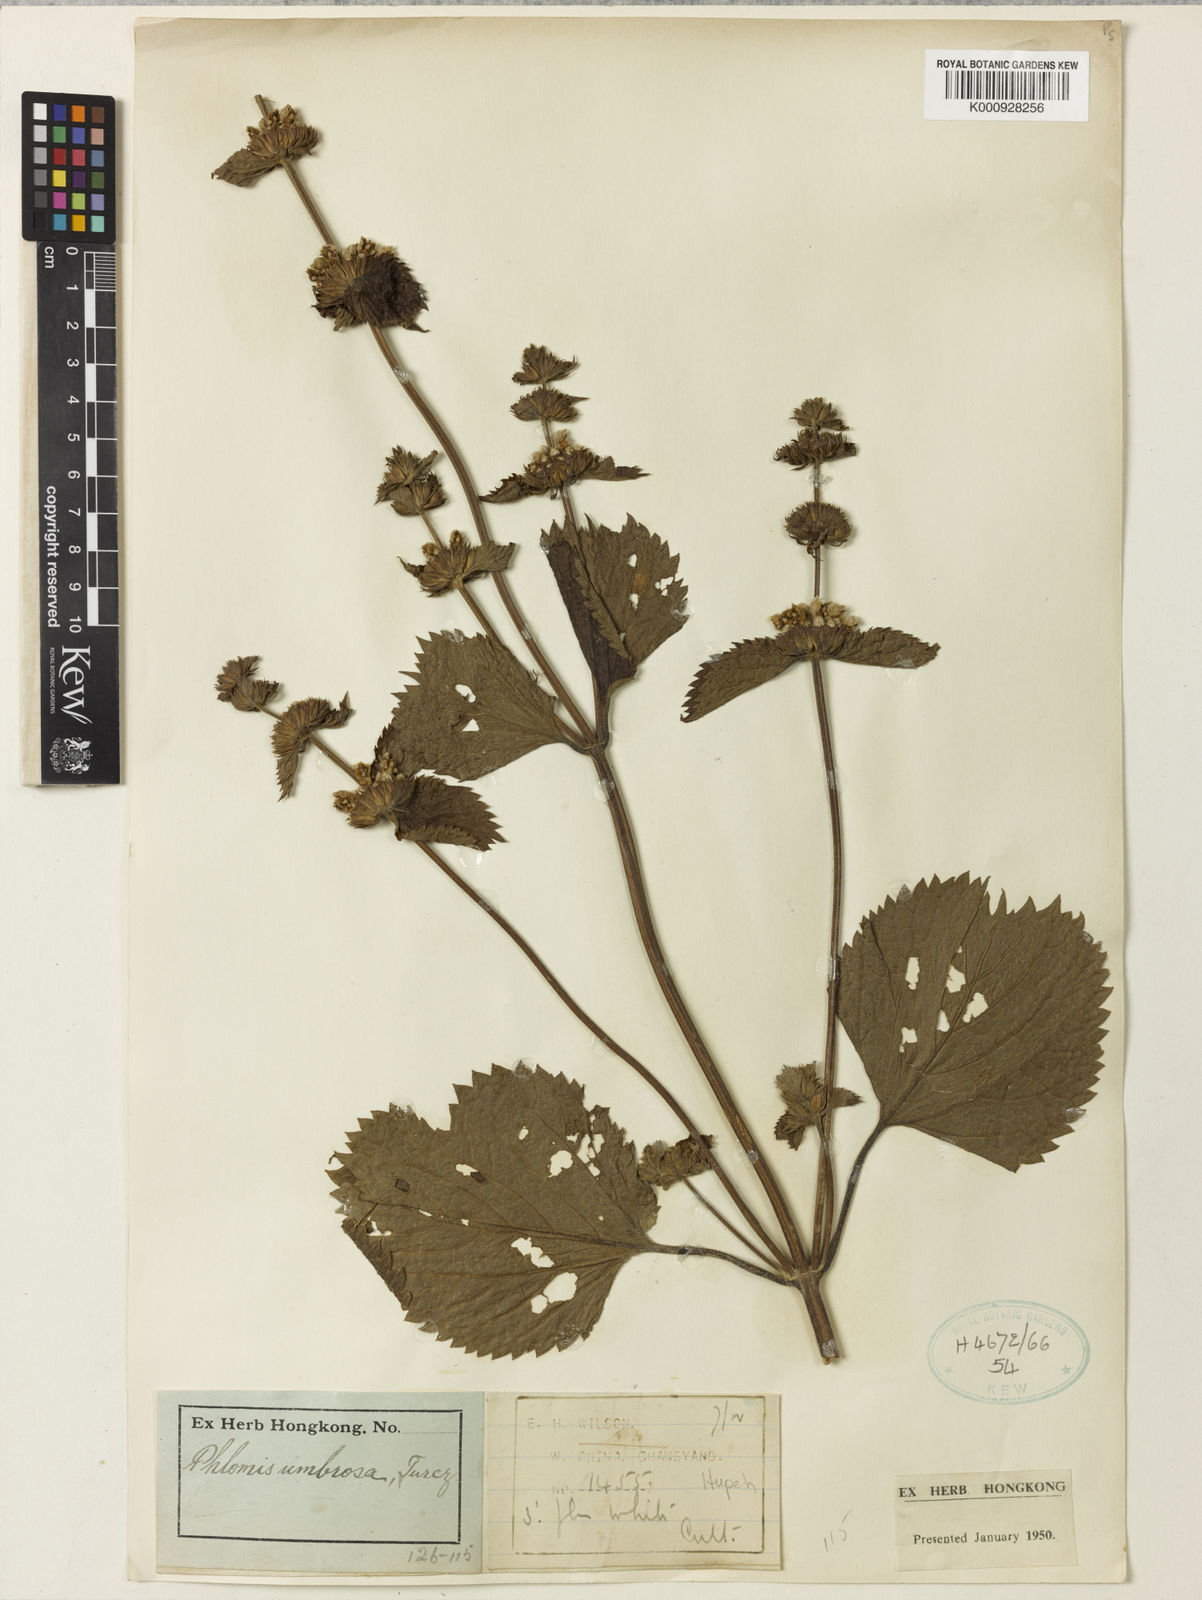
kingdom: Plantae
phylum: Tracheophyta
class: Magnoliopsida
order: Lamiales
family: Lamiaceae
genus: Phlomoides
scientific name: Phlomoides umbrosa
